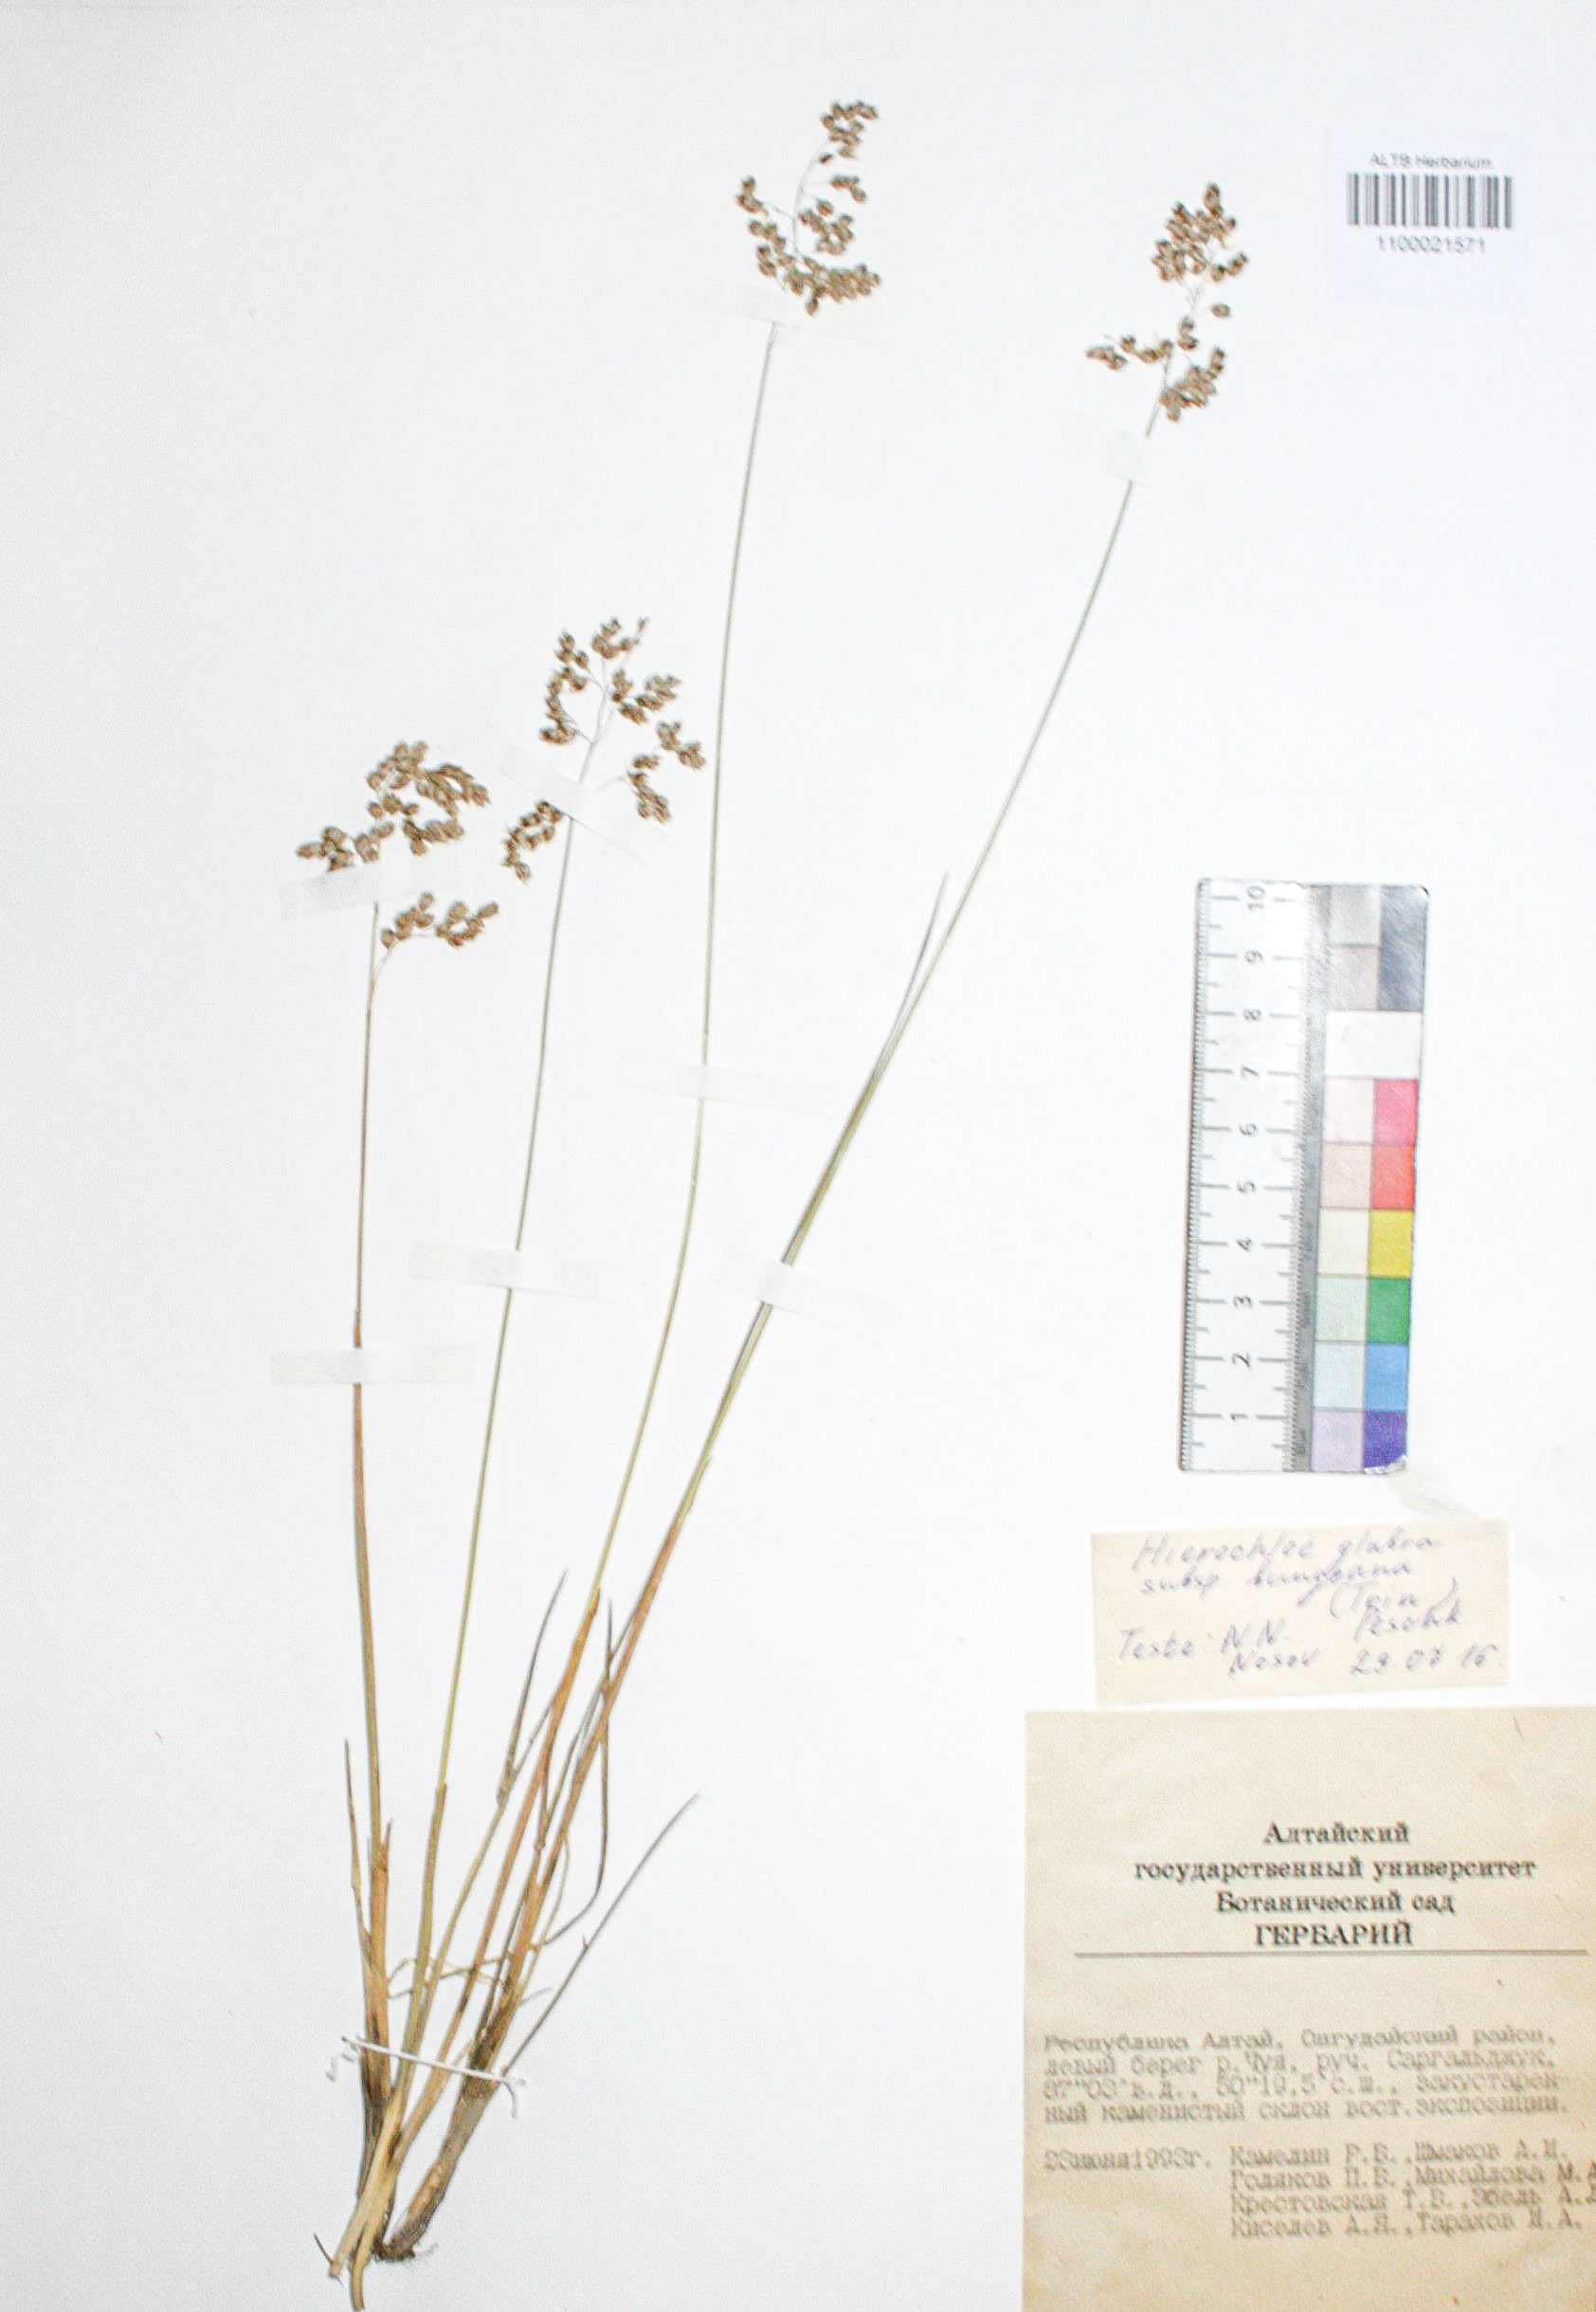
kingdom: Plantae
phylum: Tracheophyta
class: Liliopsida
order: Poales
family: Poaceae
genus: Anthoxanthum
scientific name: Anthoxanthum glabrum
